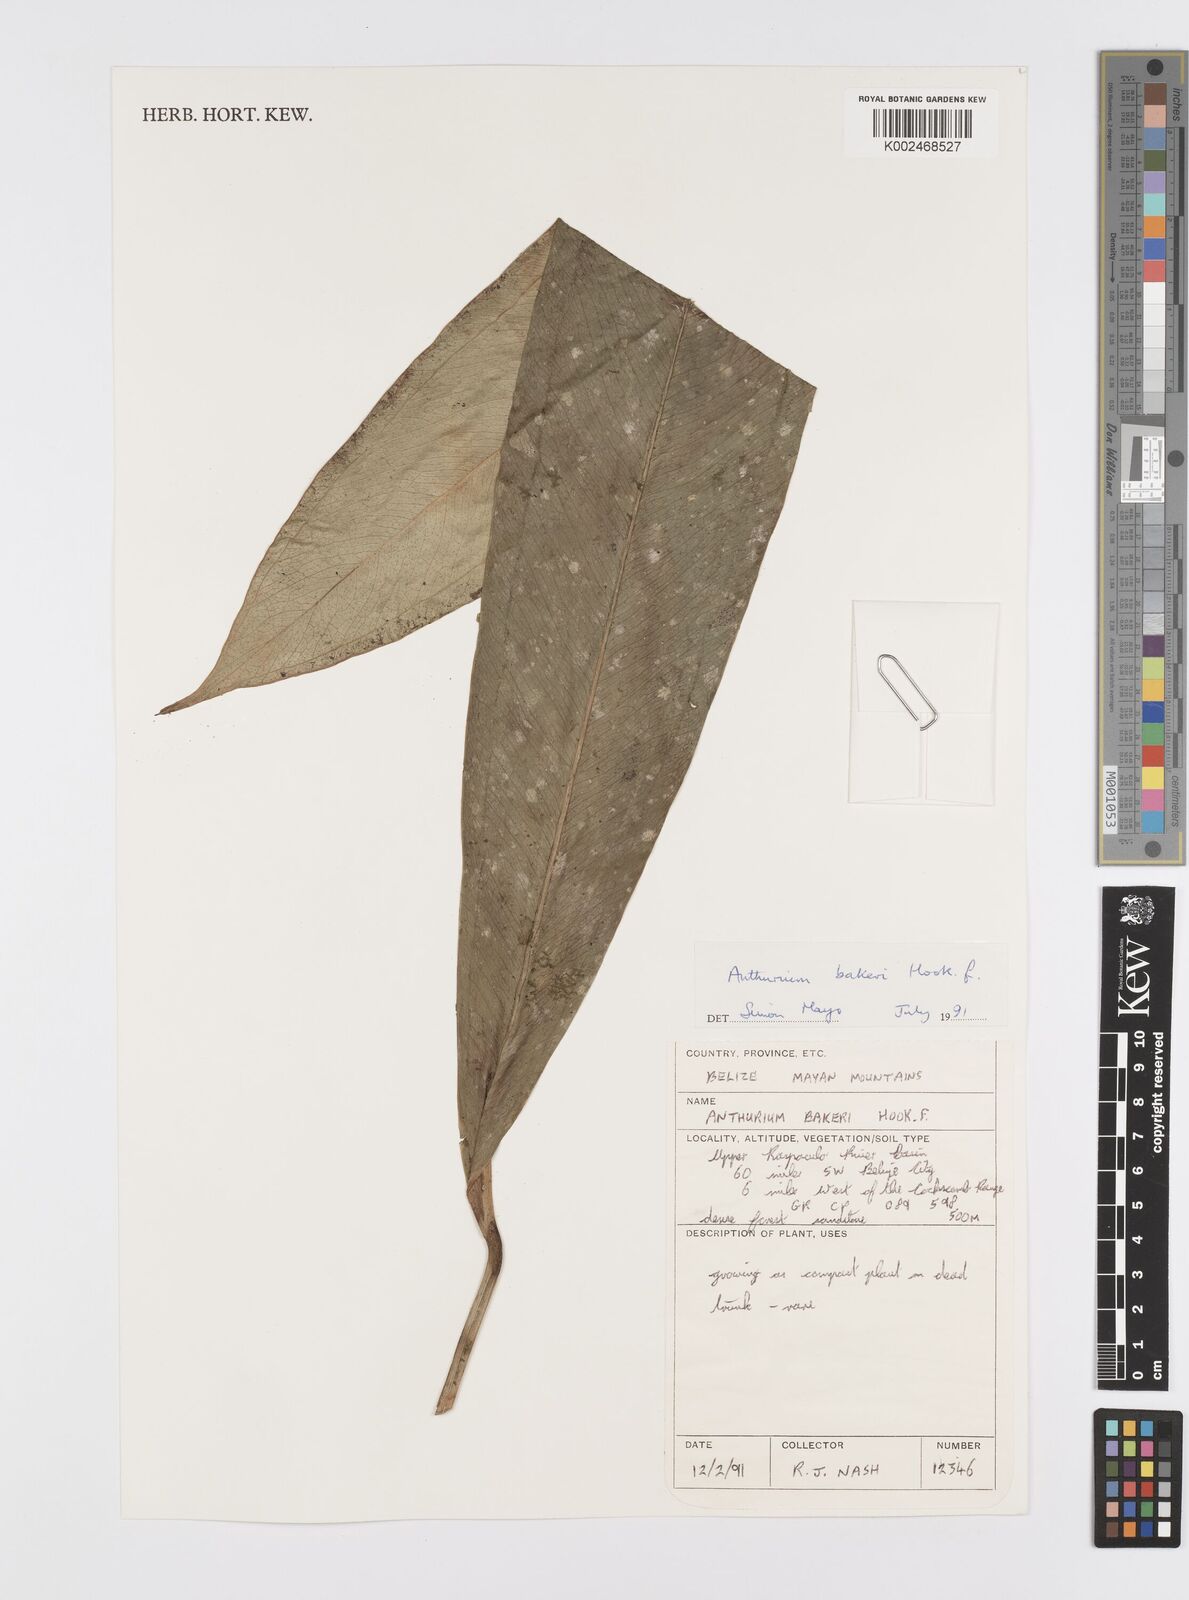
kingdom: Plantae
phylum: Tracheophyta
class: Liliopsida
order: Alismatales
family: Araceae
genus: Anthurium
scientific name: Anthurium bakeri
